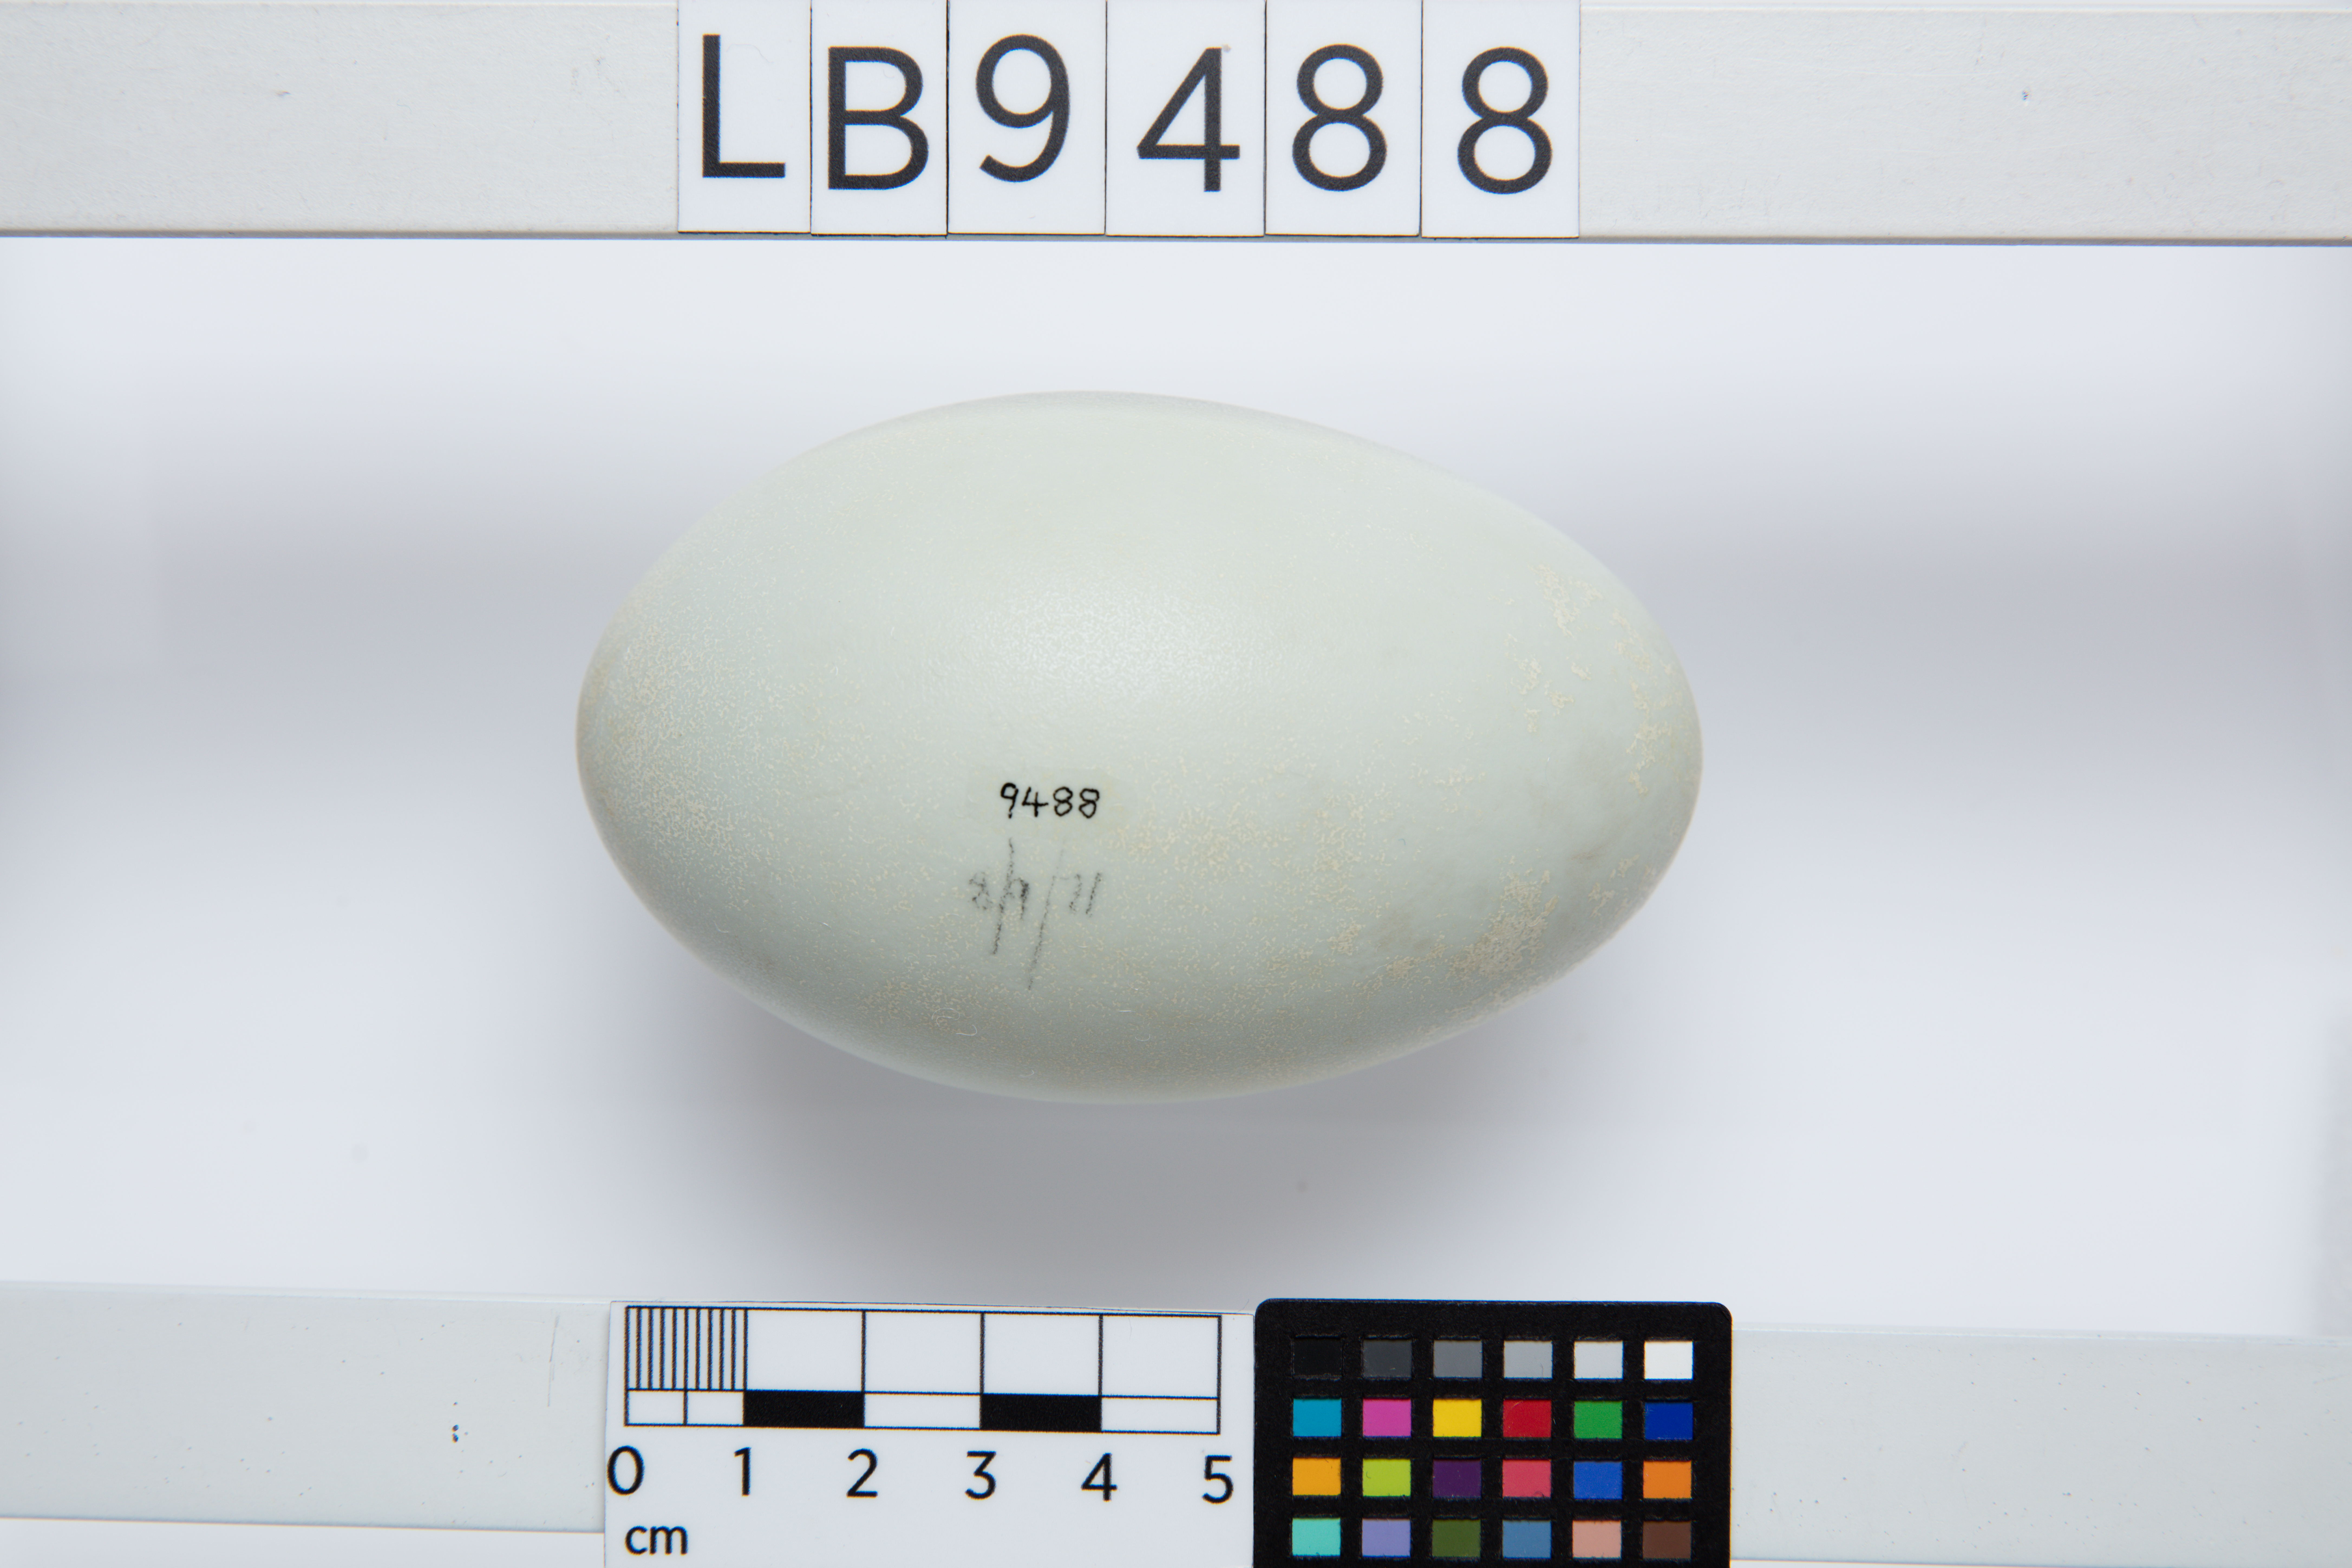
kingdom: Animalia
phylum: Chordata
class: Aves
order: Anseriformes
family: Anatidae
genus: Cygnus
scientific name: Cygnus atratus
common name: Black swan
